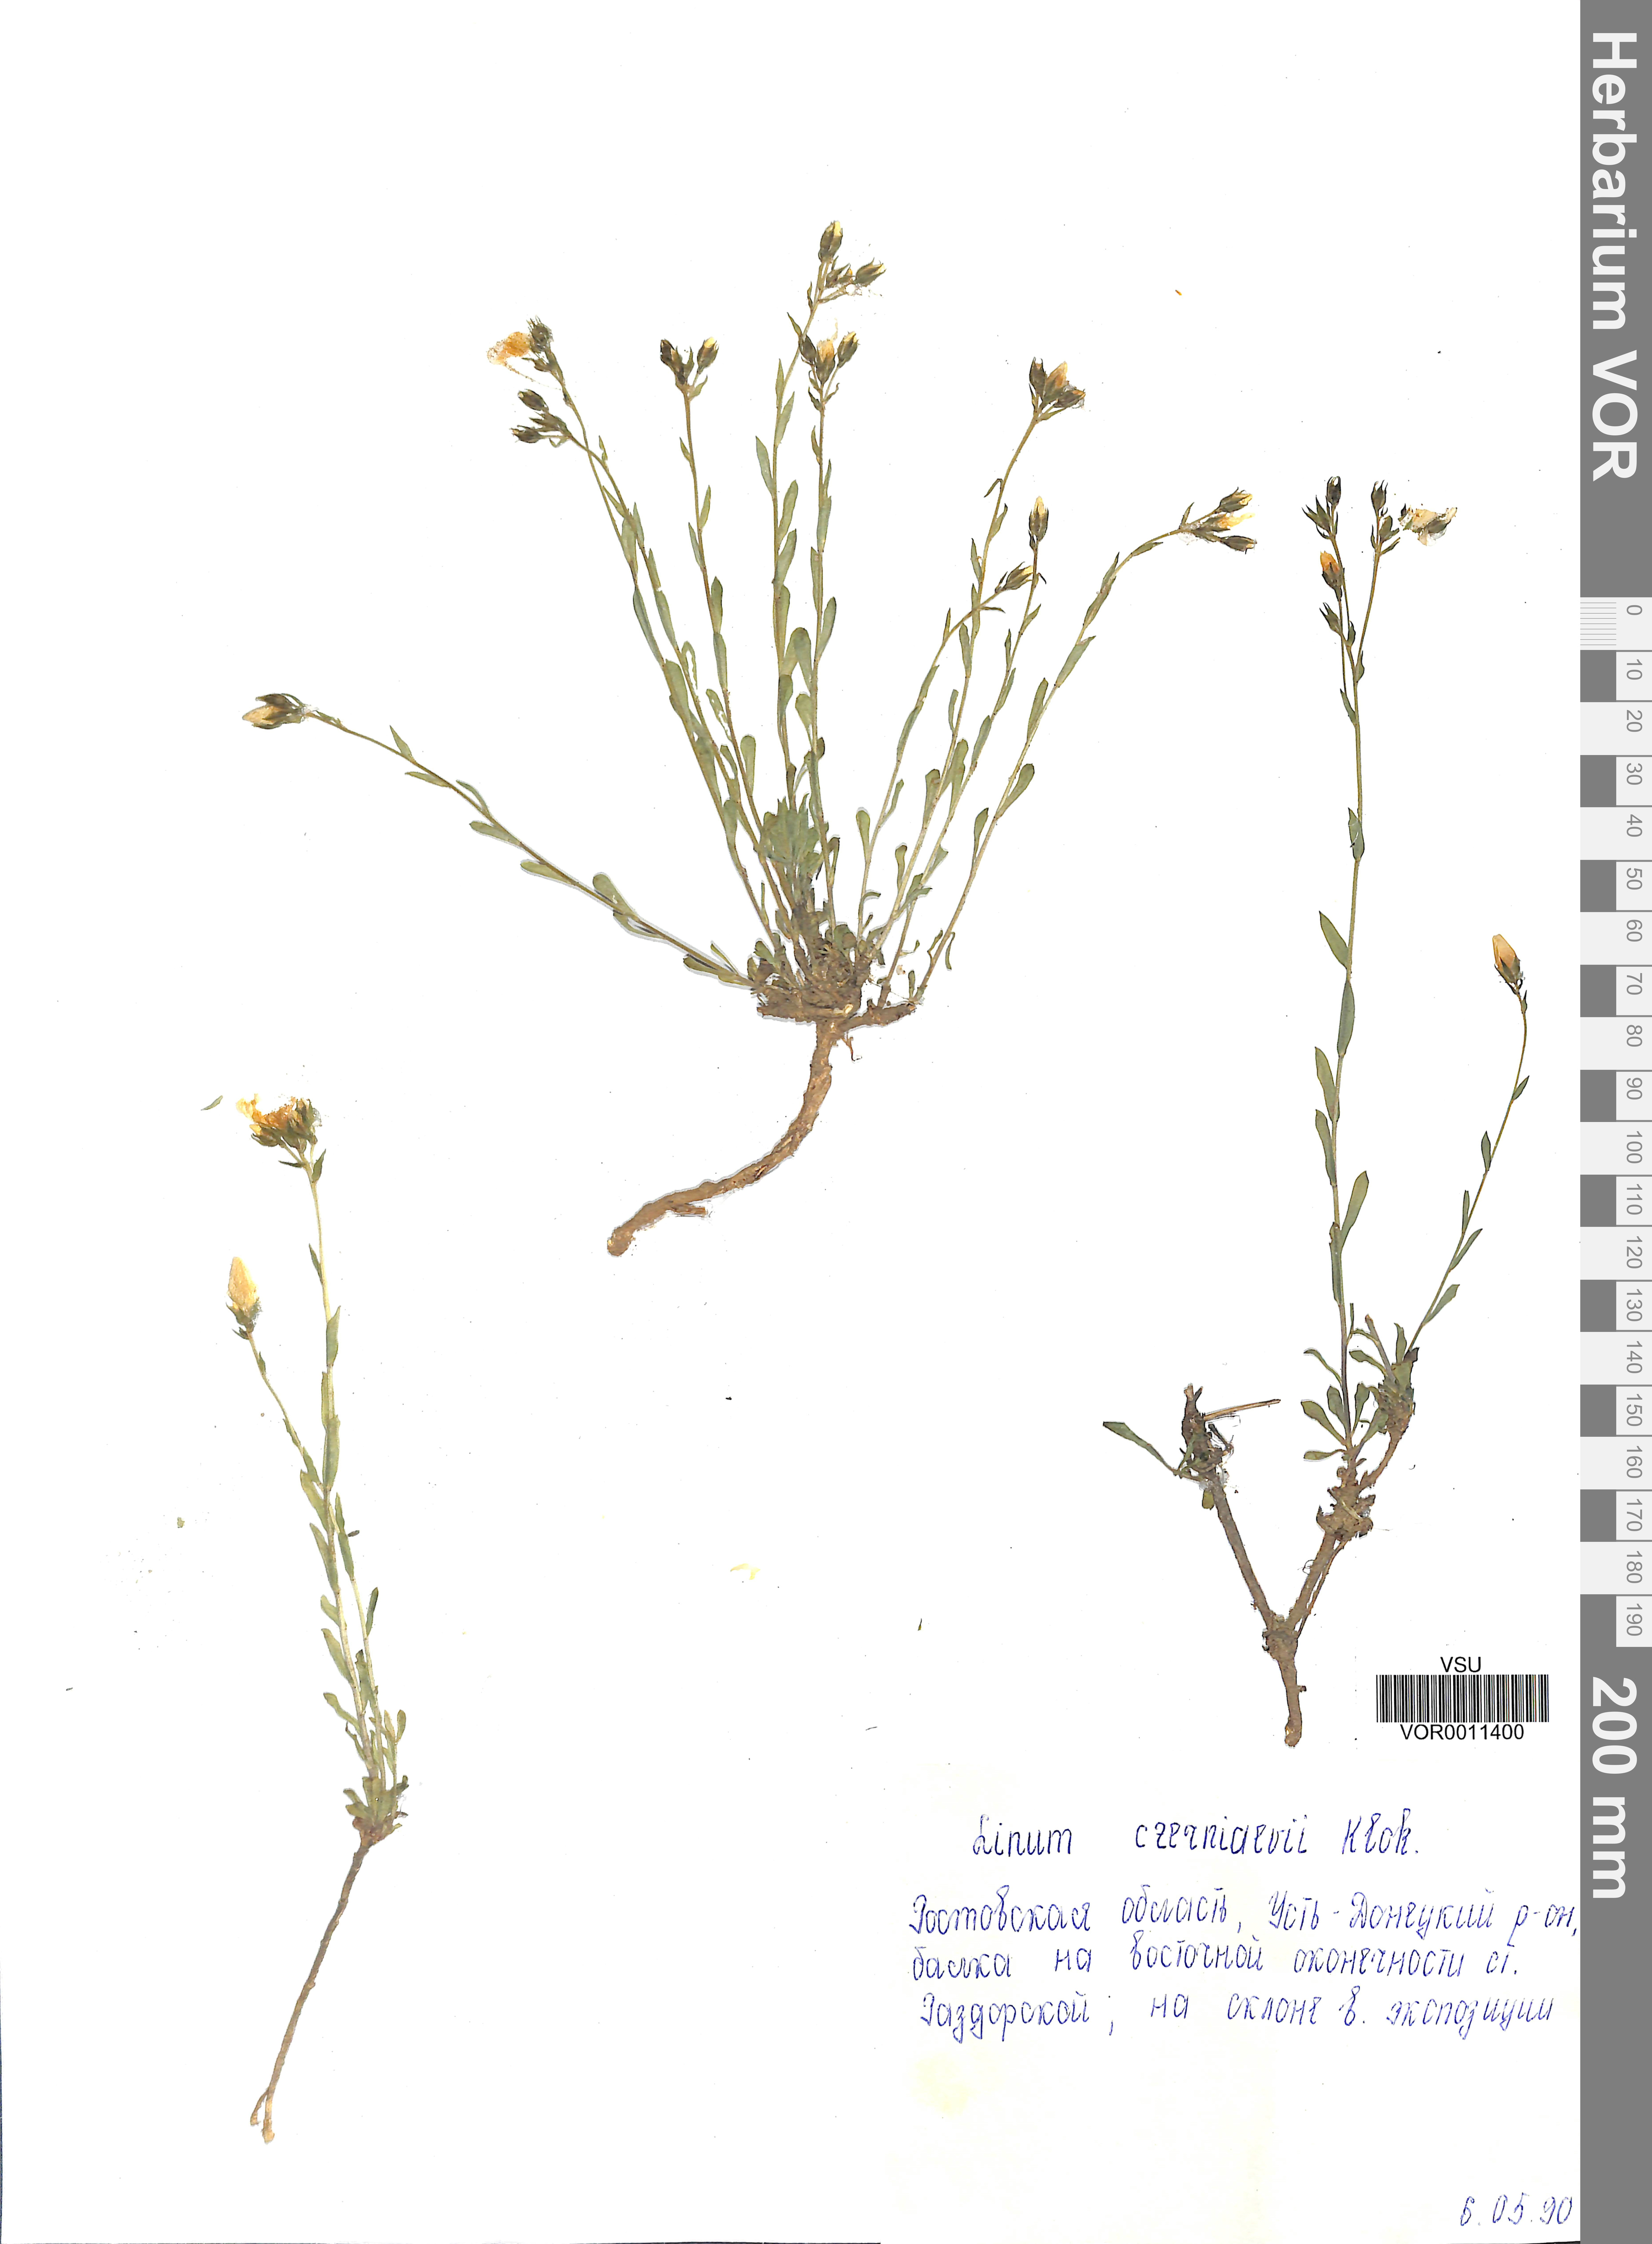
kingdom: Plantae
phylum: Tracheophyta
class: Magnoliopsida
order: Malpighiales
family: Linaceae
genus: Linum
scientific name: Linum pallasianum
